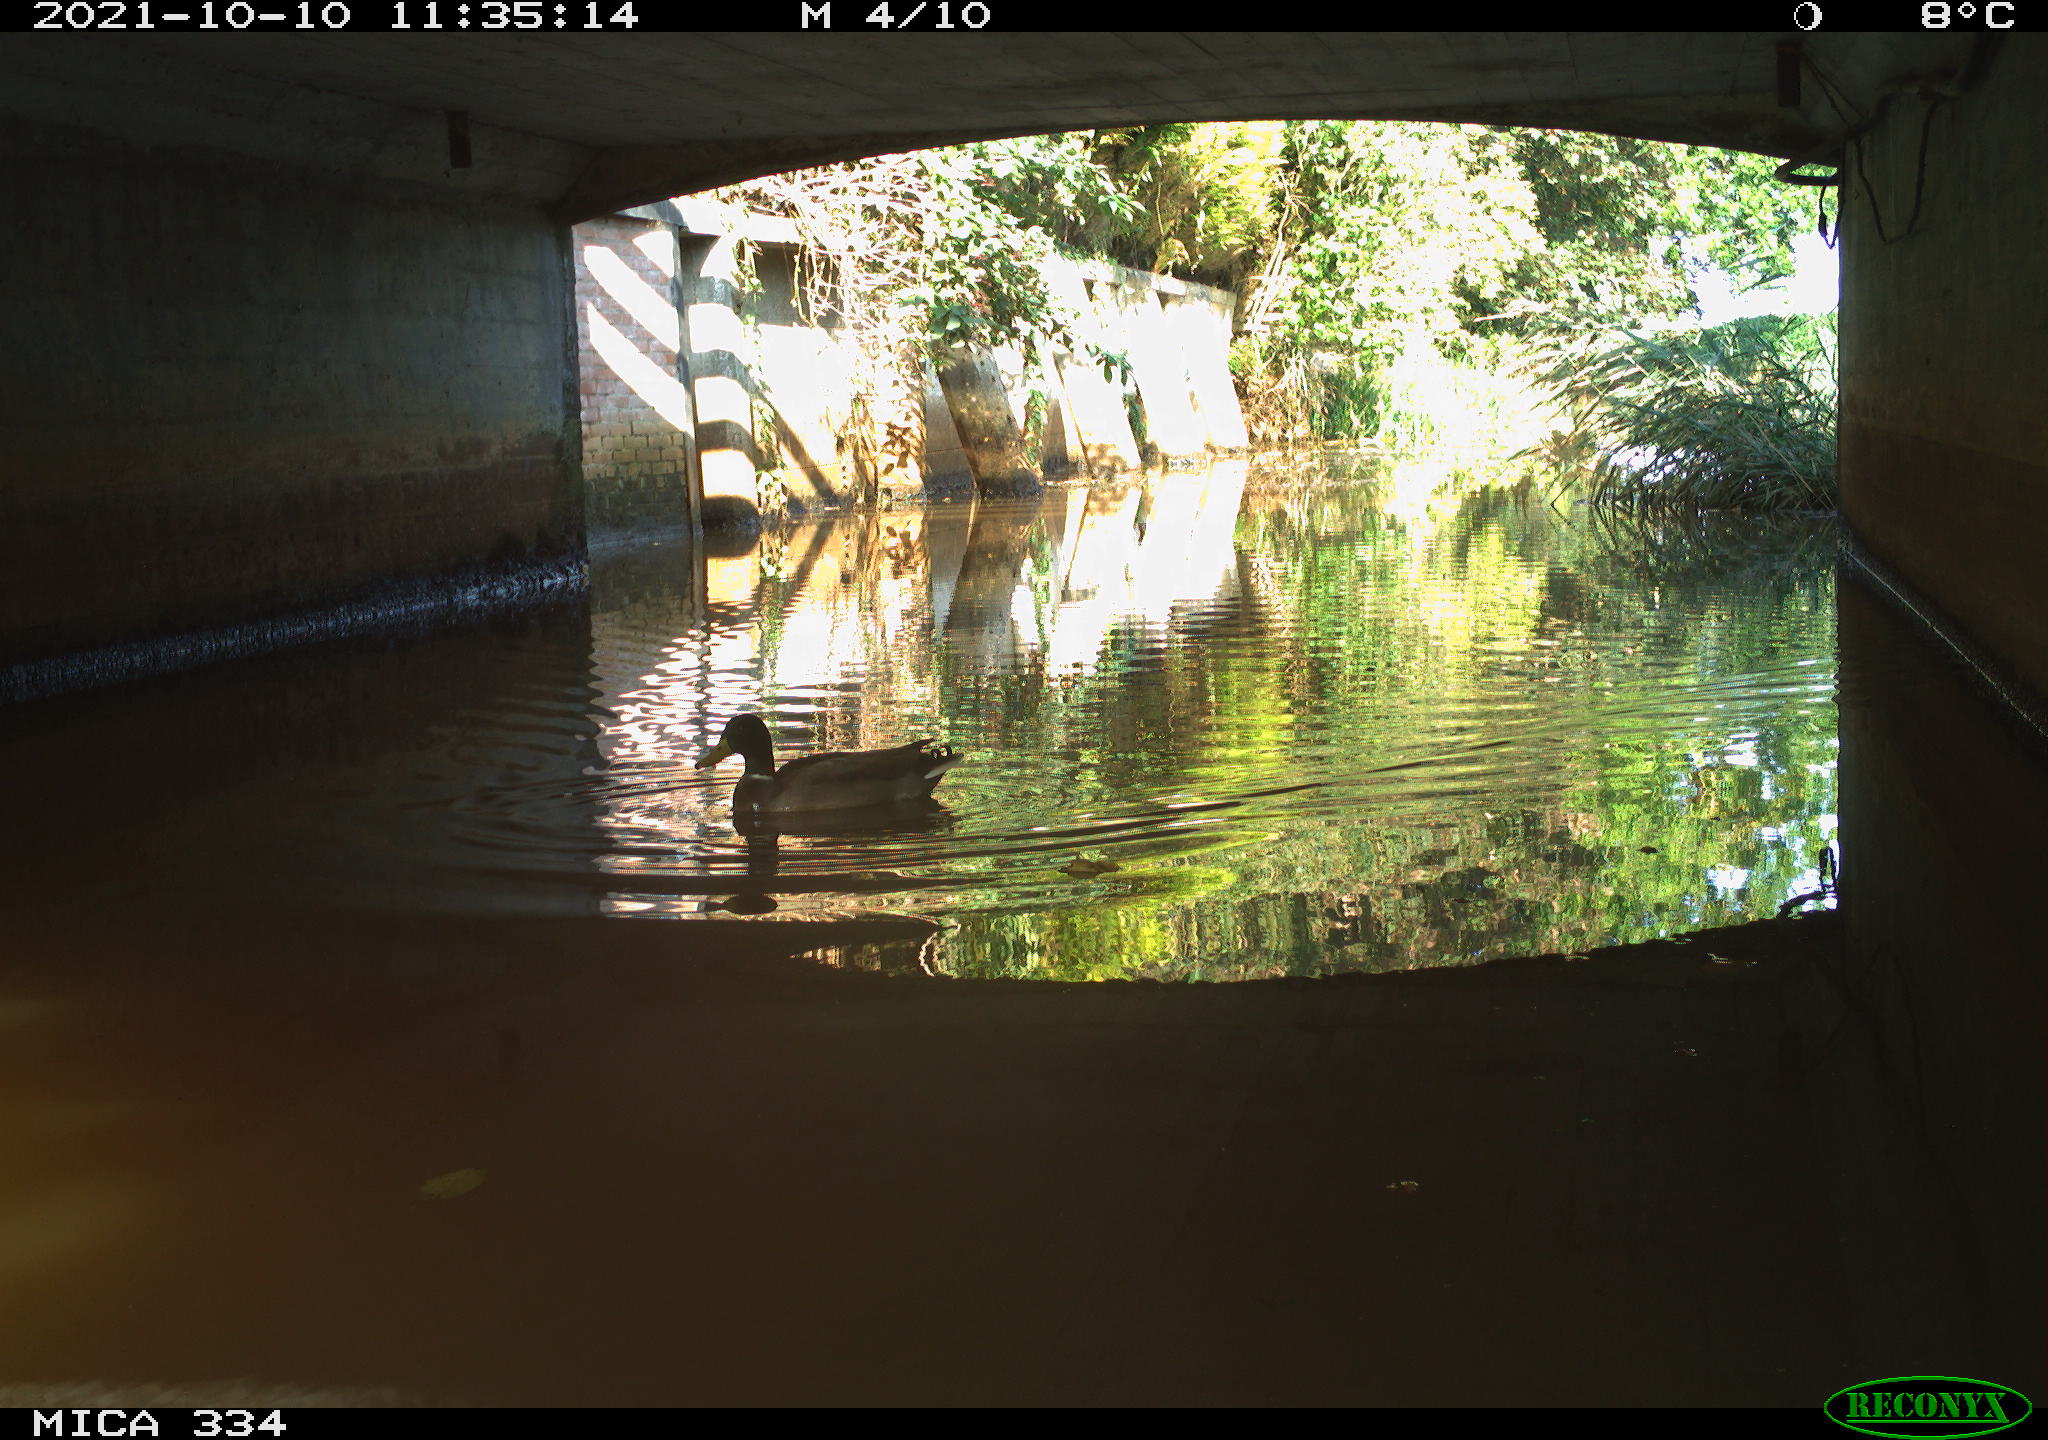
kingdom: Animalia
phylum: Chordata
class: Aves
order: Anseriformes
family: Anatidae
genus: Anas
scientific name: Anas platyrhynchos
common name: Mallard
